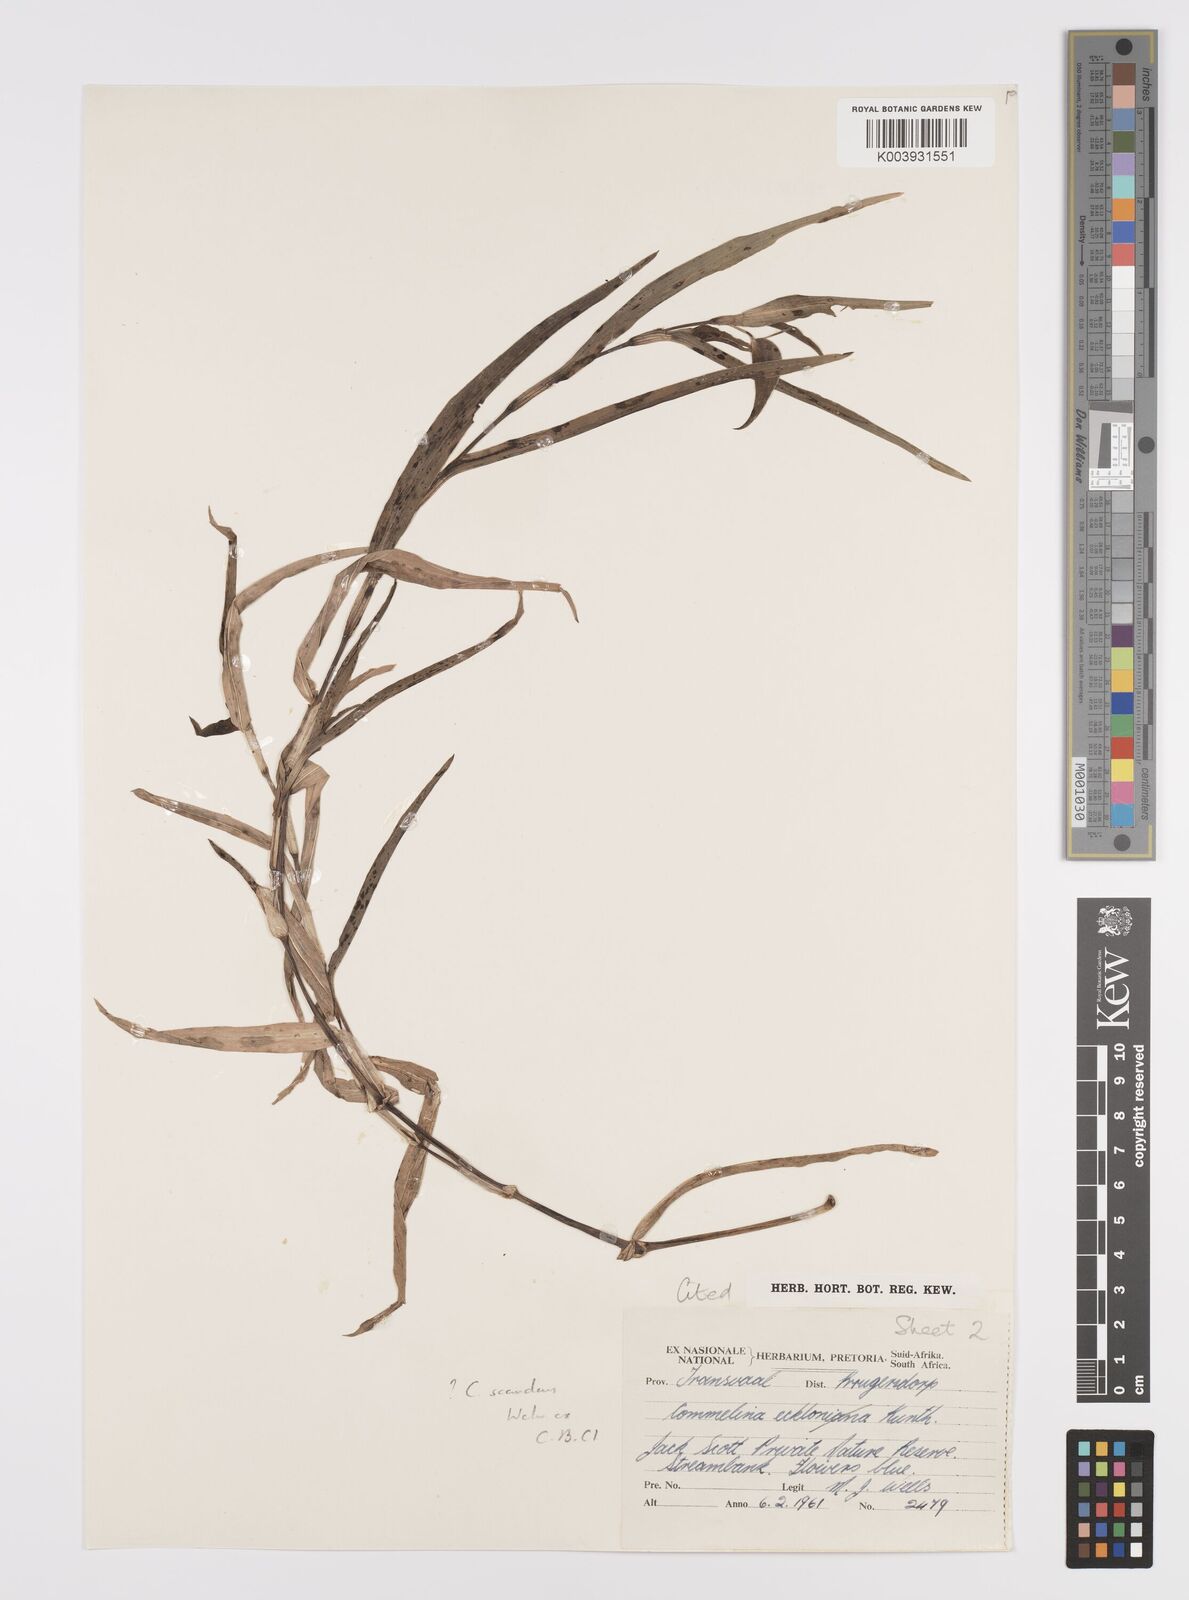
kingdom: Plantae
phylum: Tracheophyta
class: Liliopsida
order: Commelinales
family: Commelinaceae
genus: Commelina
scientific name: Commelina scandens
